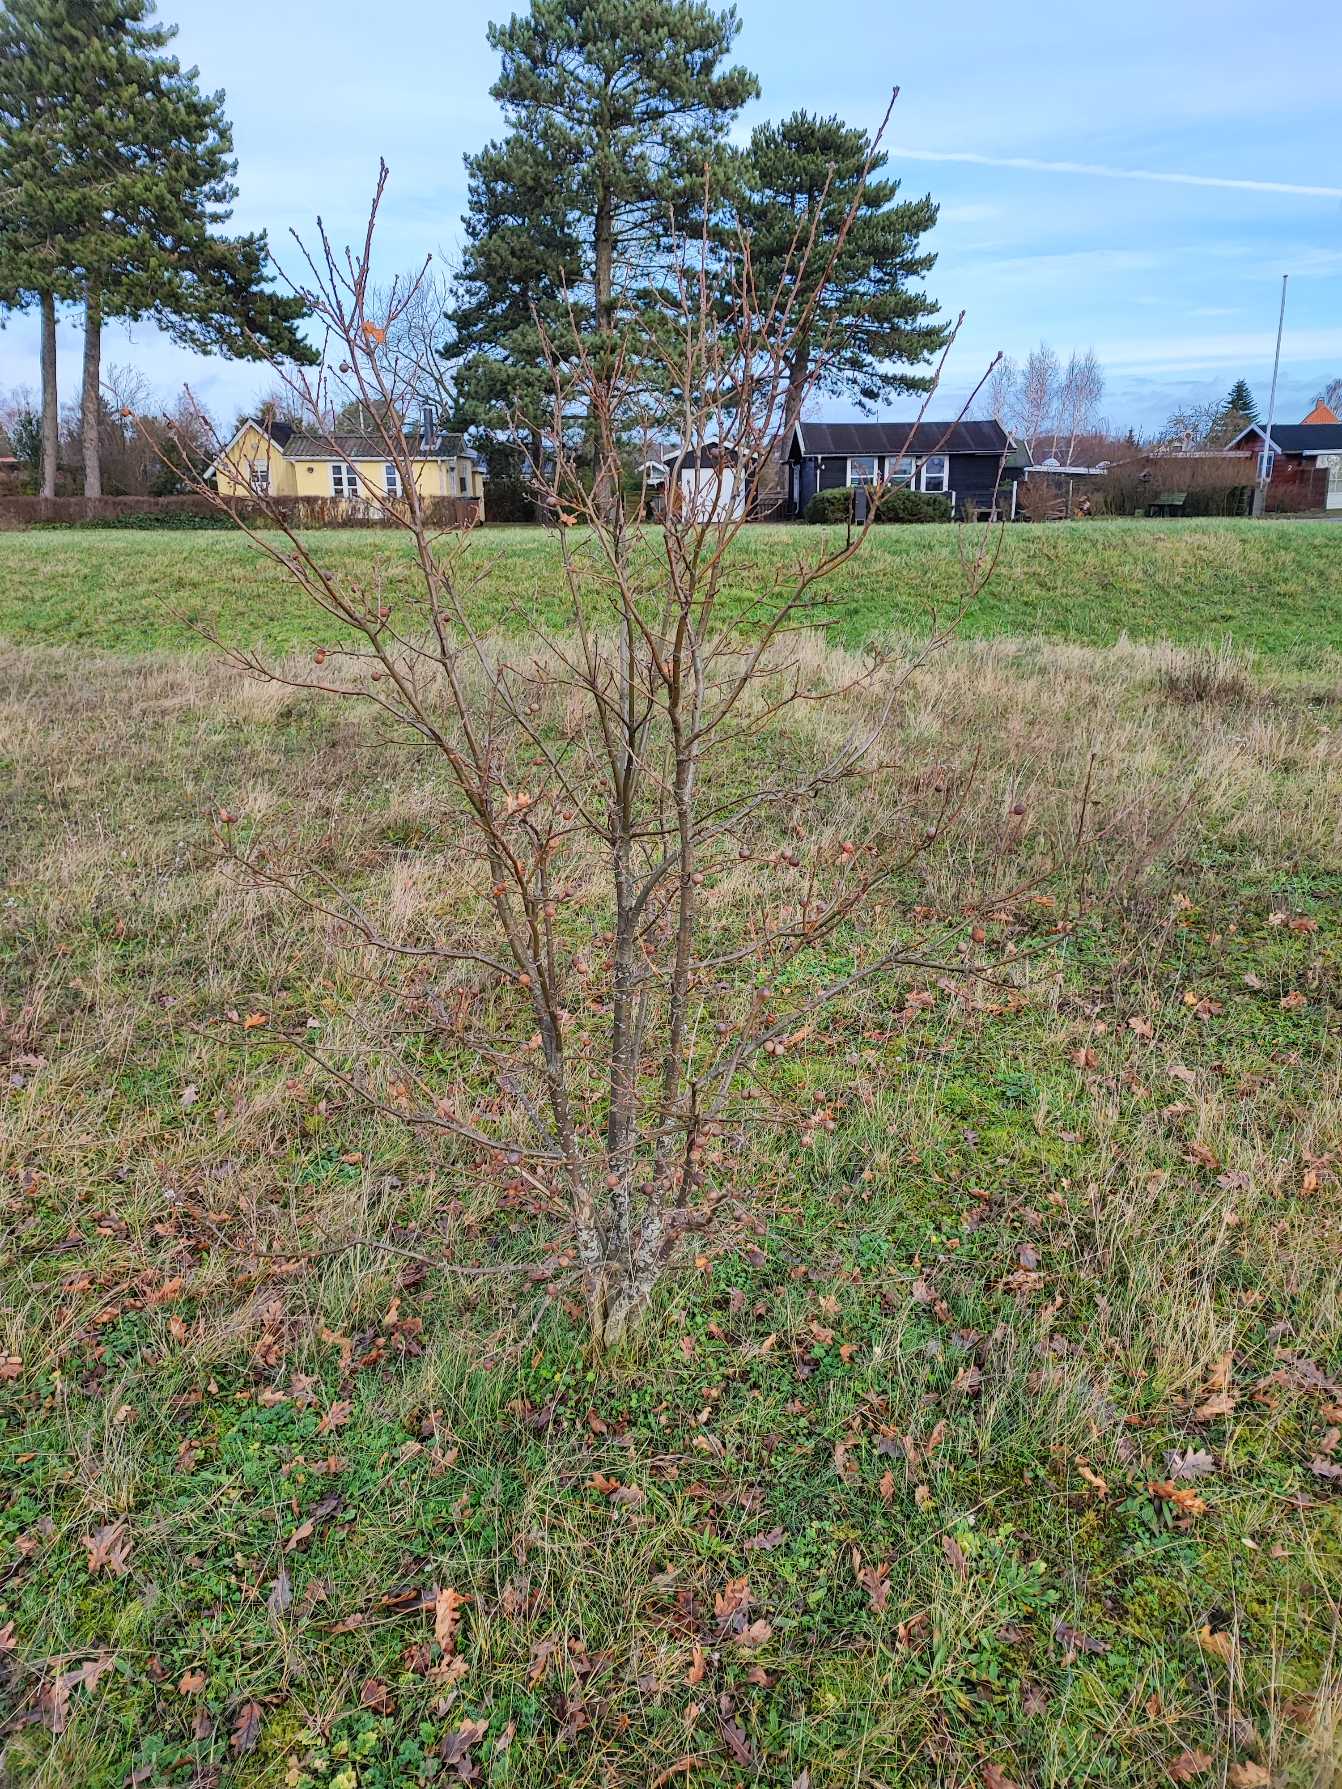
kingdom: Animalia
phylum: Arthropoda
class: Insecta
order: Hymenoptera
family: Cynipidae
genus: Andricus
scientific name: Andricus kollari
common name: Marmorkugle-galhveps
